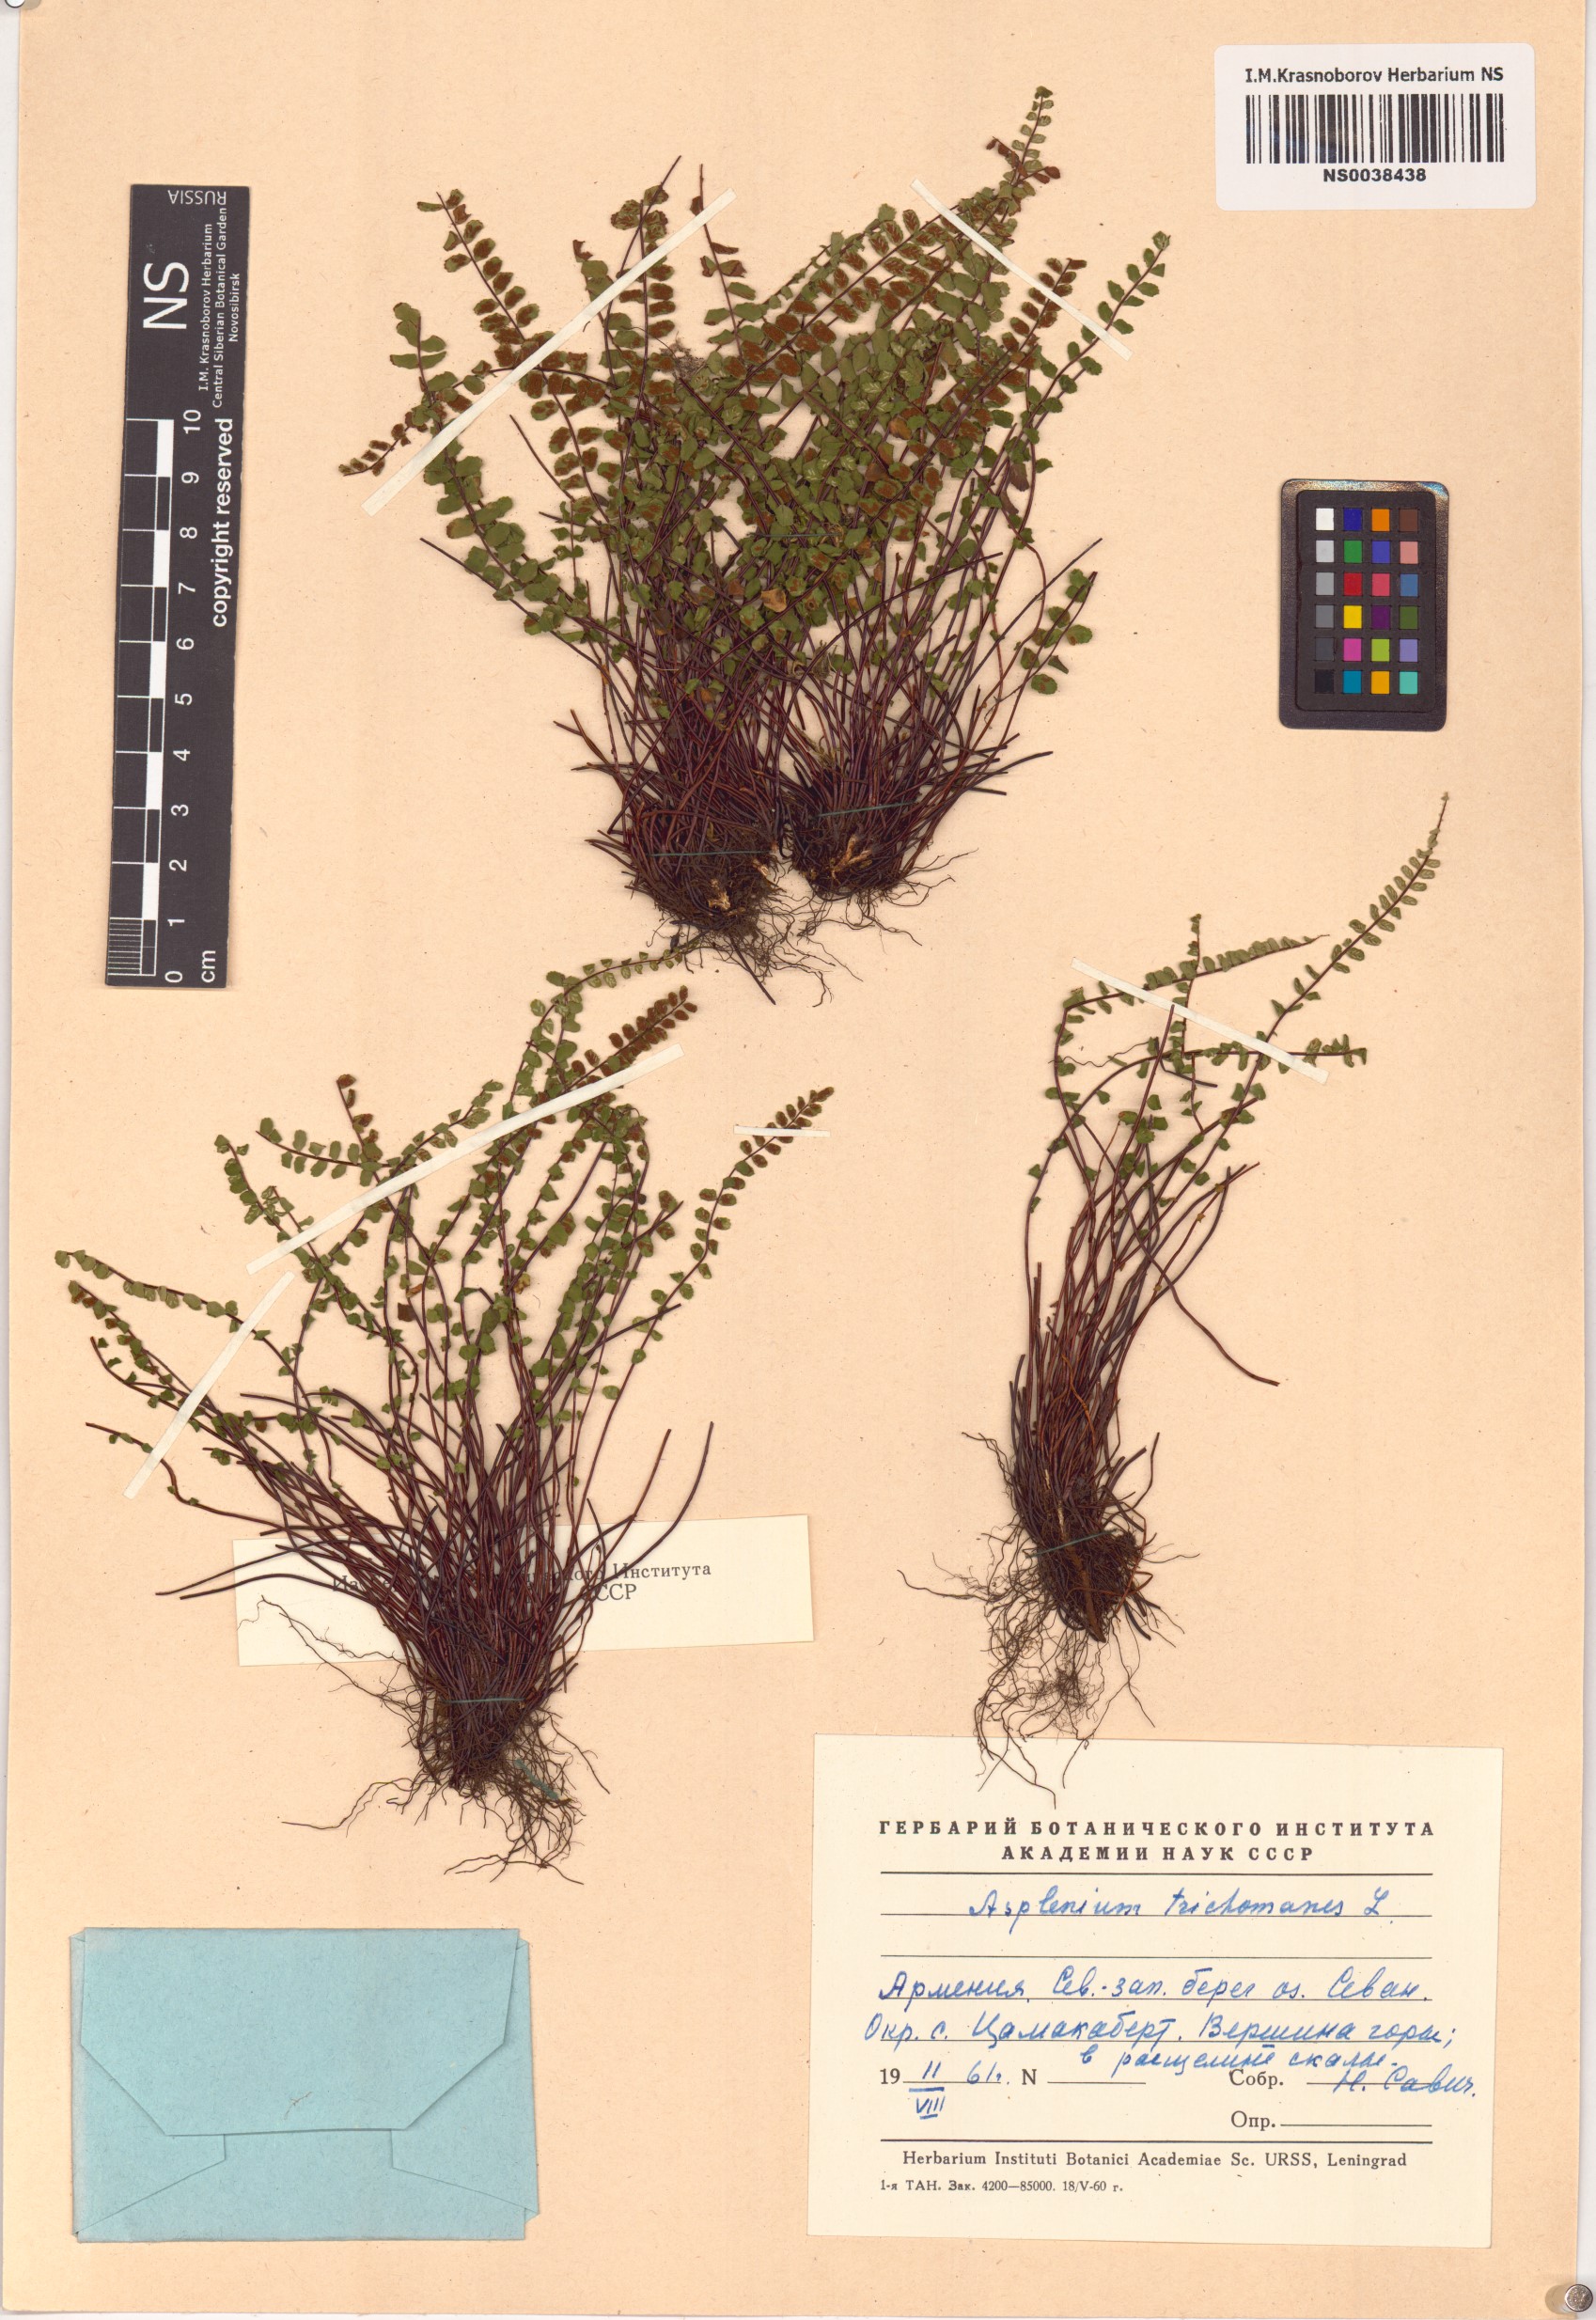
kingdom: Plantae
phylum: Tracheophyta
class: Polypodiopsida
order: Polypodiales
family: Aspleniaceae
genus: Asplenium
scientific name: Asplenium trichomanes
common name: Maidenhair spleenwort
